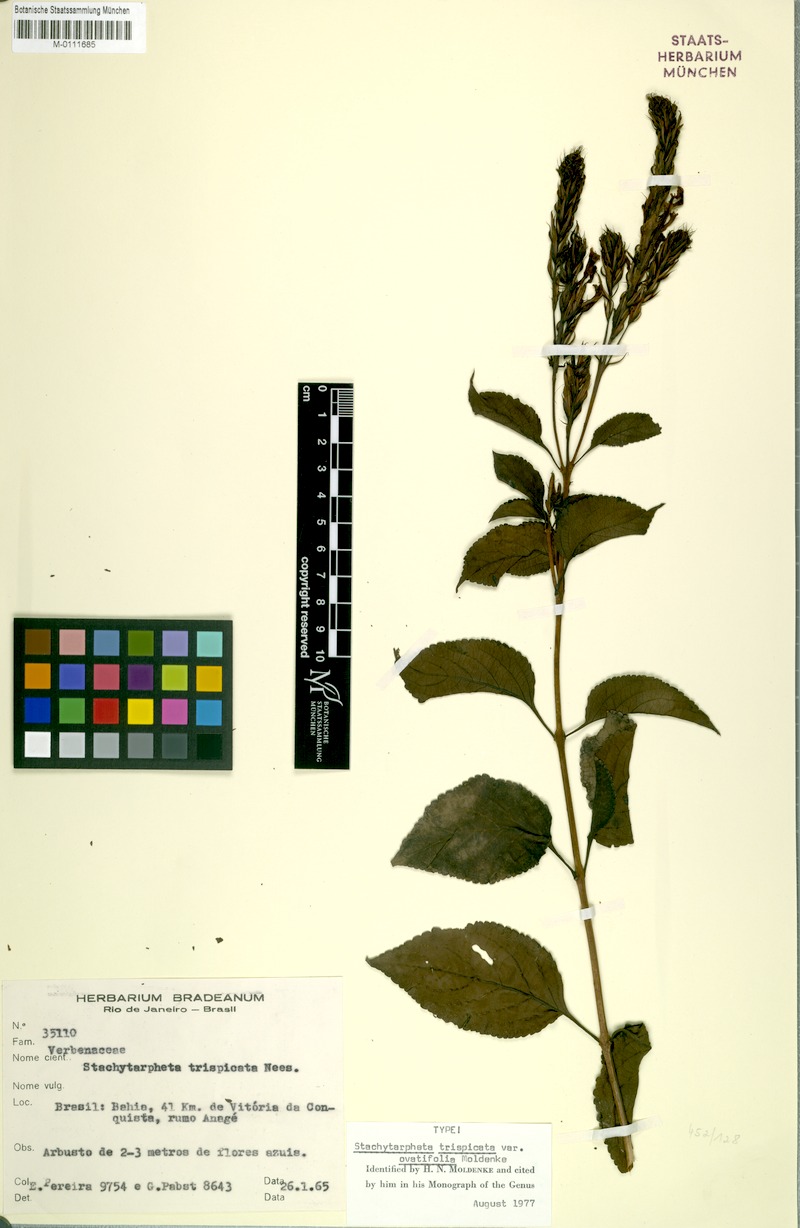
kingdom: Plantae
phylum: Tracheophyta
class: Magnoliopsida
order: Lamiales
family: Verbenaceae
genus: Stachytarpheta
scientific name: Stachytarpheta trispicata
